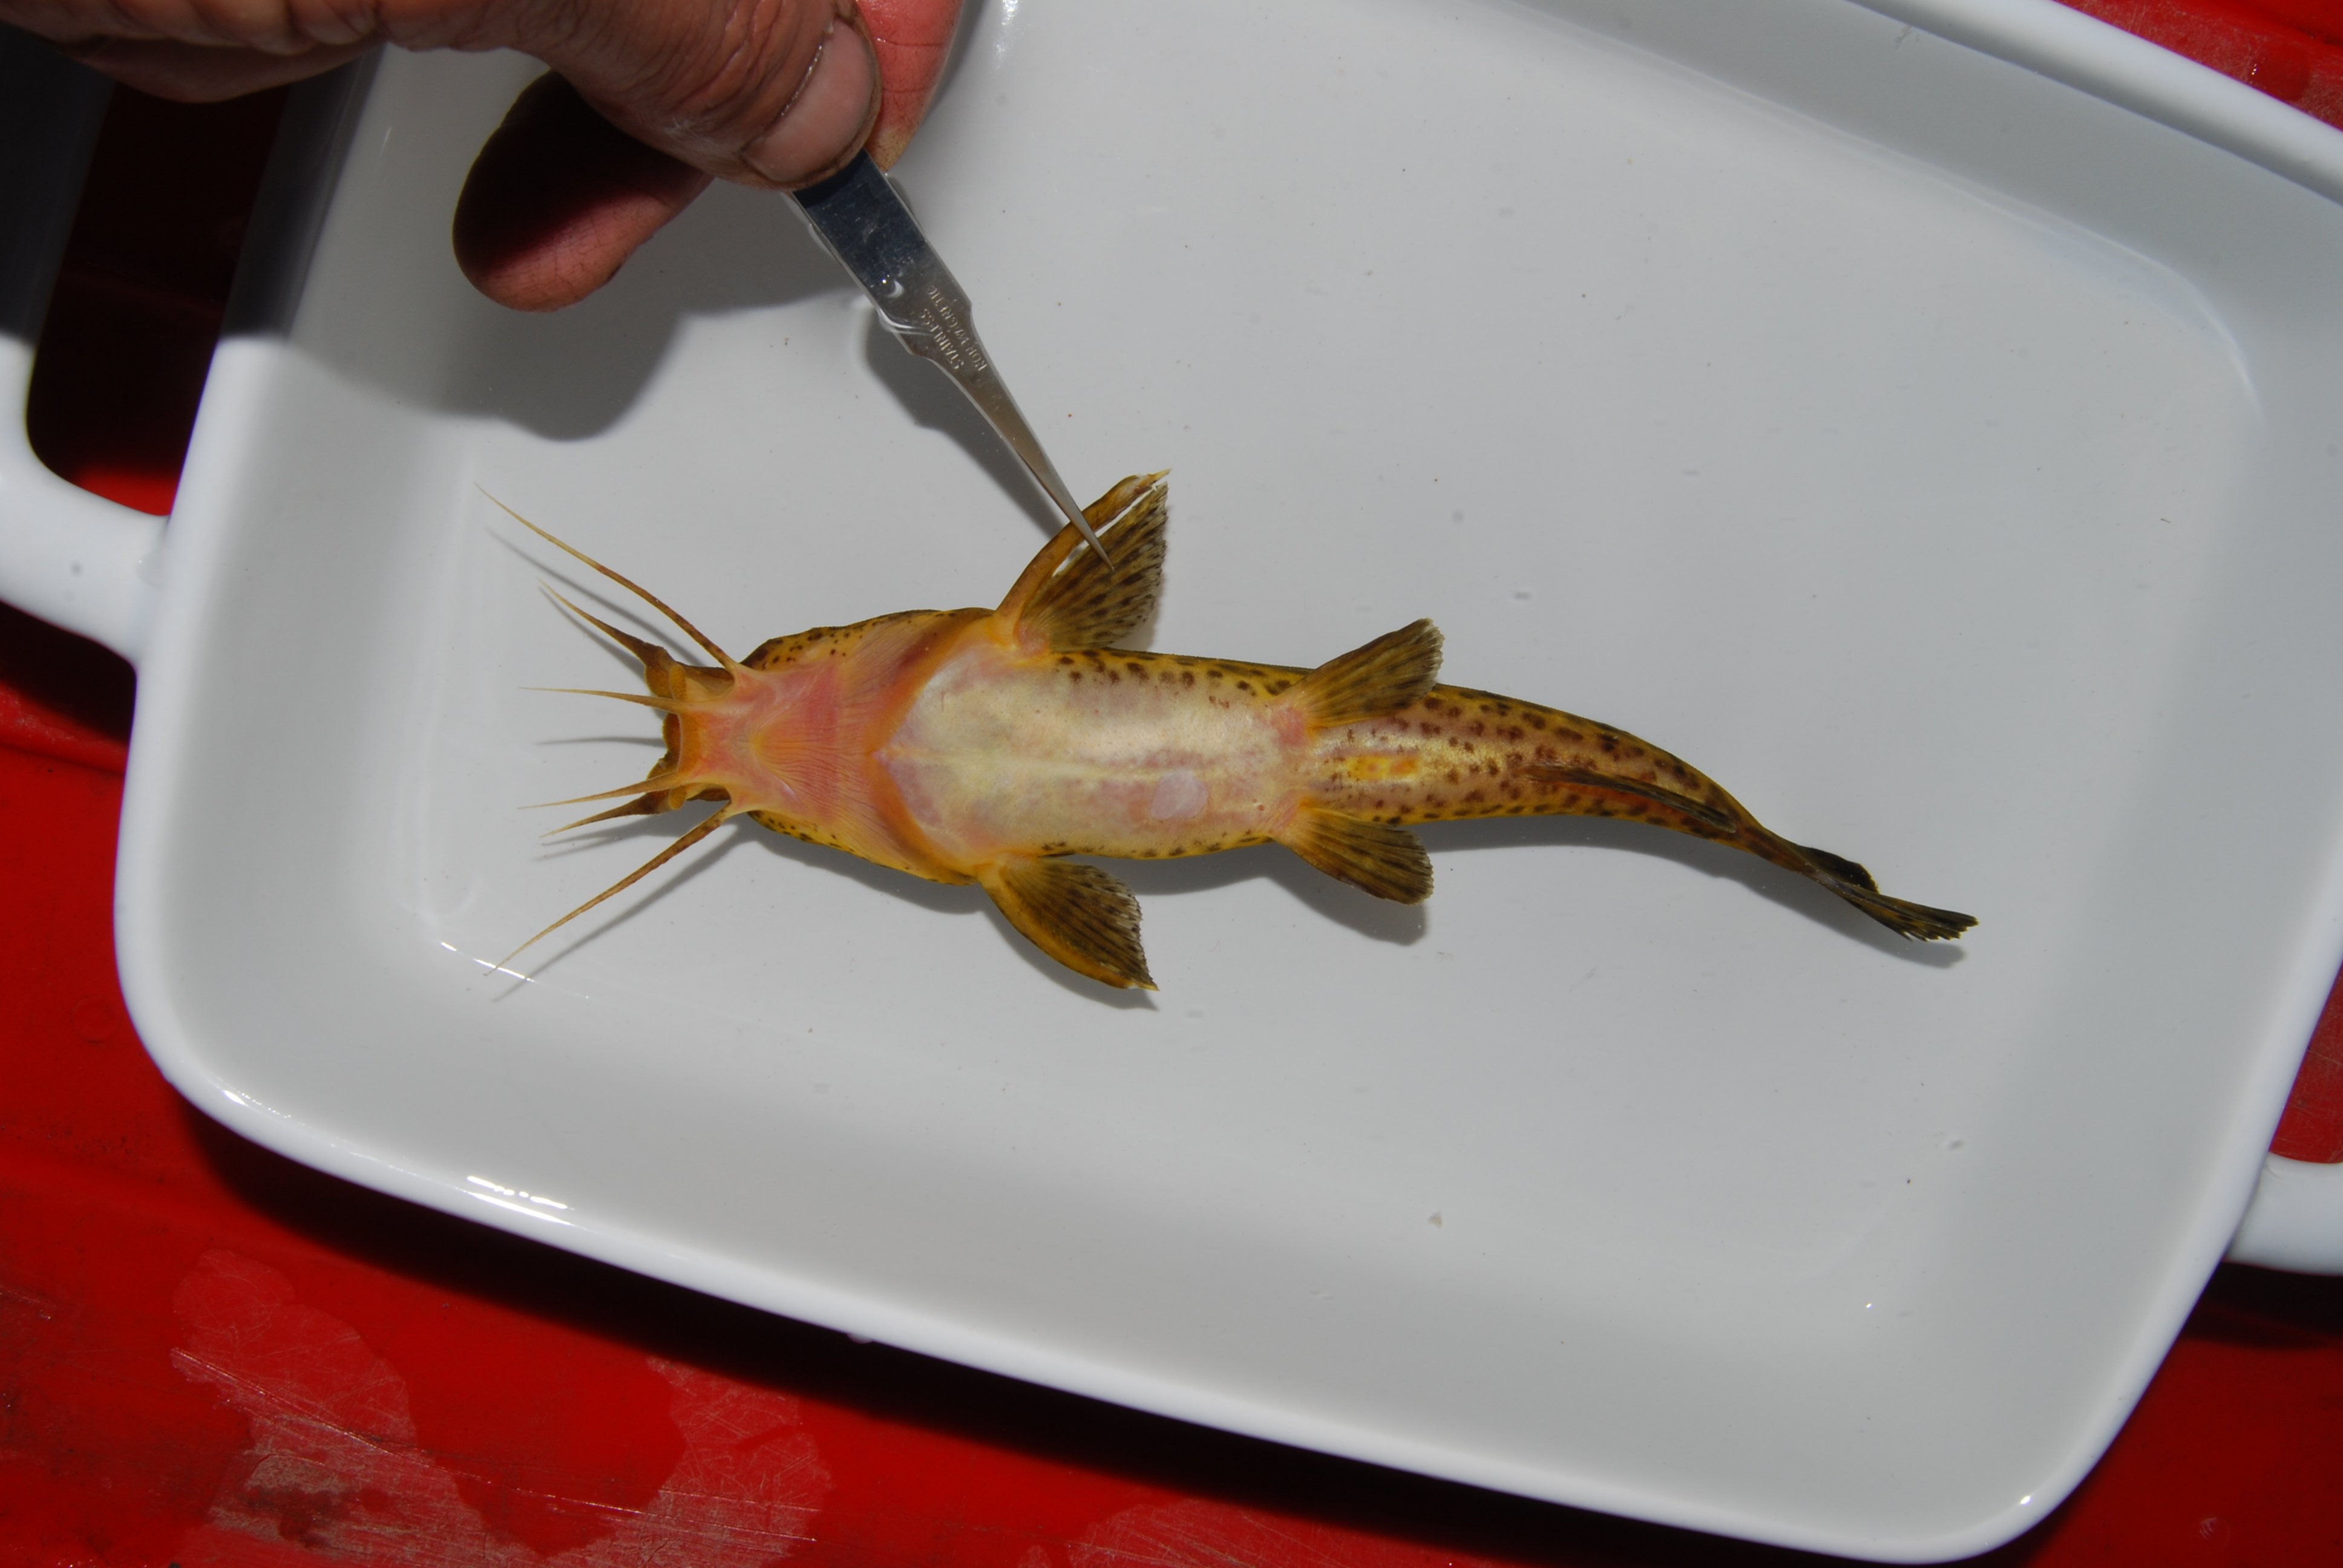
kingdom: Animalia
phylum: Chordata
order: Siluriformes
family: Claroteidae
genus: Parauchenoglanis
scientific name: Parauchenoglanis ngamensis
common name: Zambezi grunter
